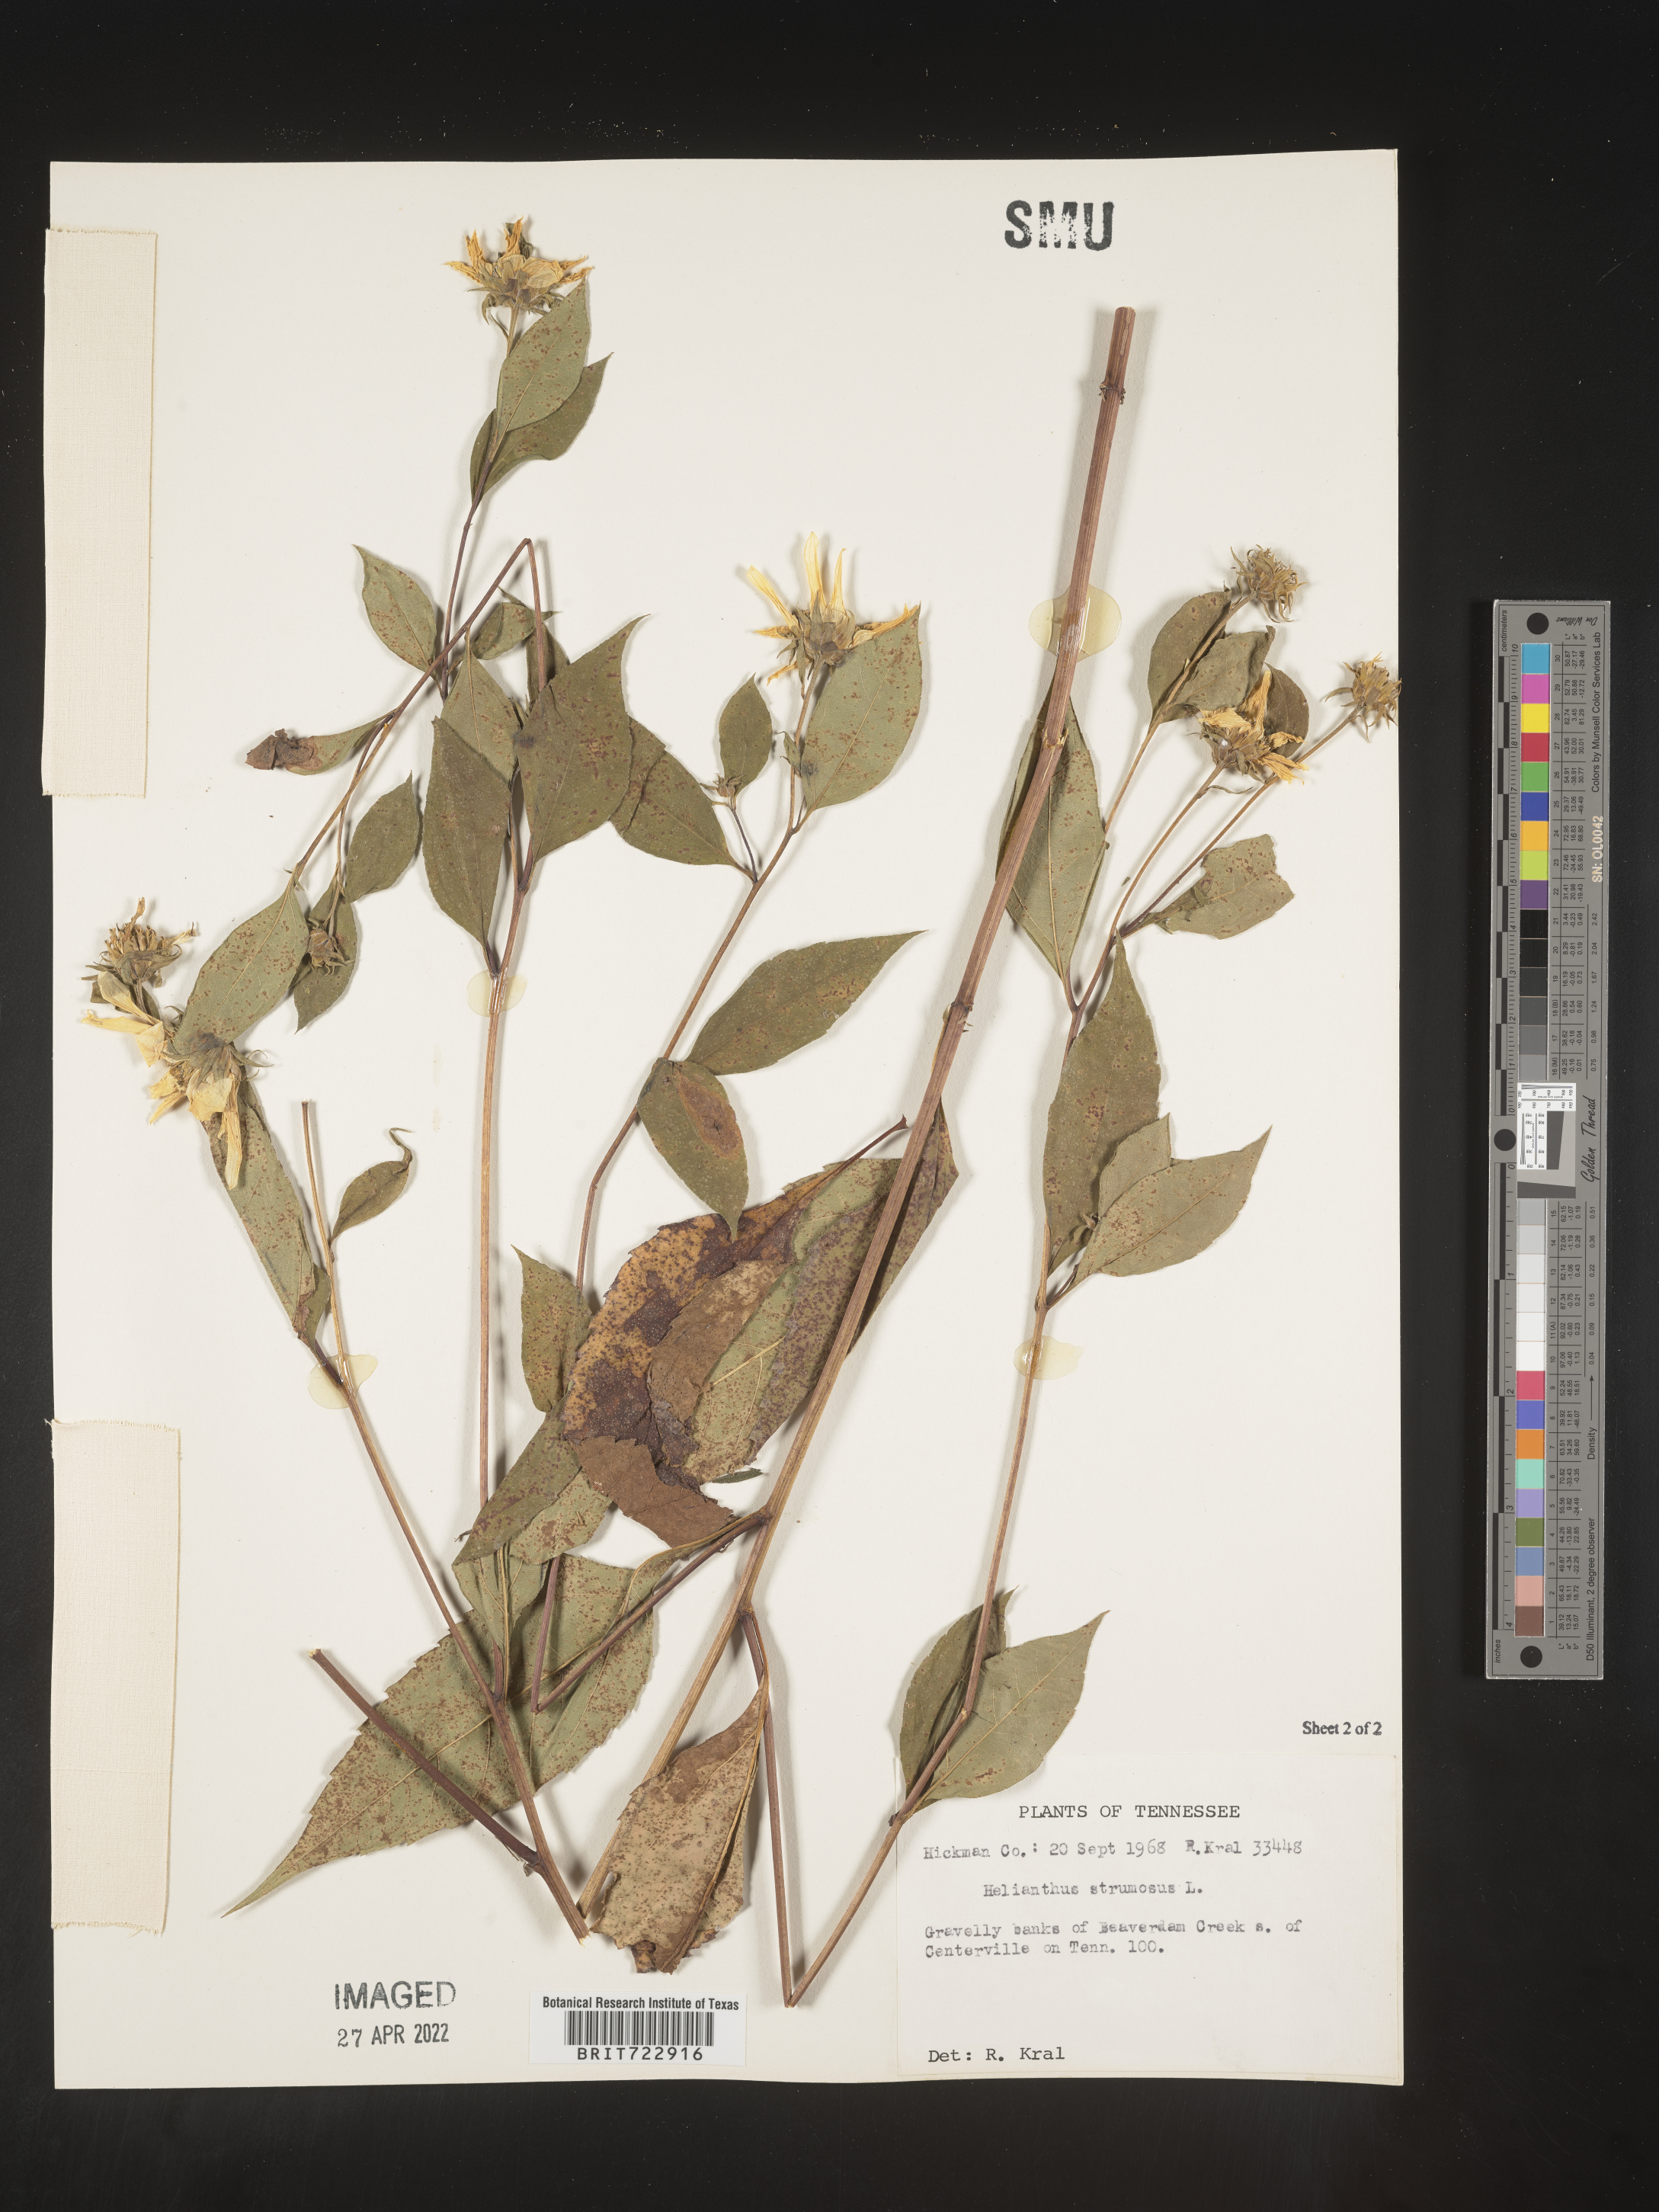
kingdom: Plantae
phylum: Tracheophyta
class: Magnoliopsida
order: Asterales
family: Asteraceae
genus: Helianthus
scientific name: Helianthus strumosus
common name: Pale-leaved sunflower
